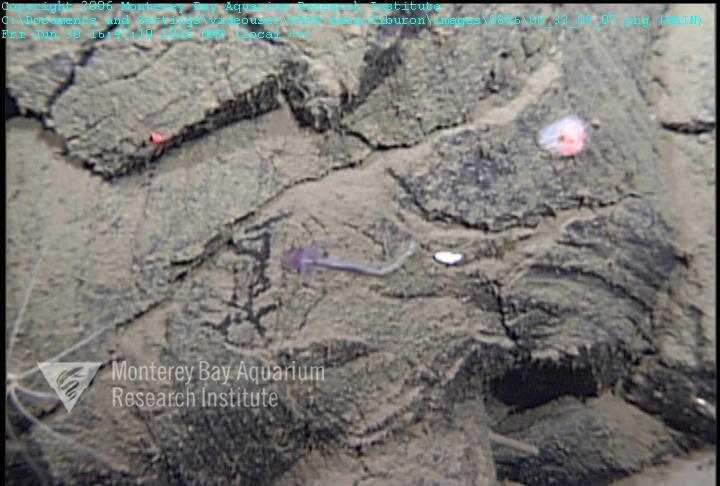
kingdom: Animalia
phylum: Porifera
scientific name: Porifera
